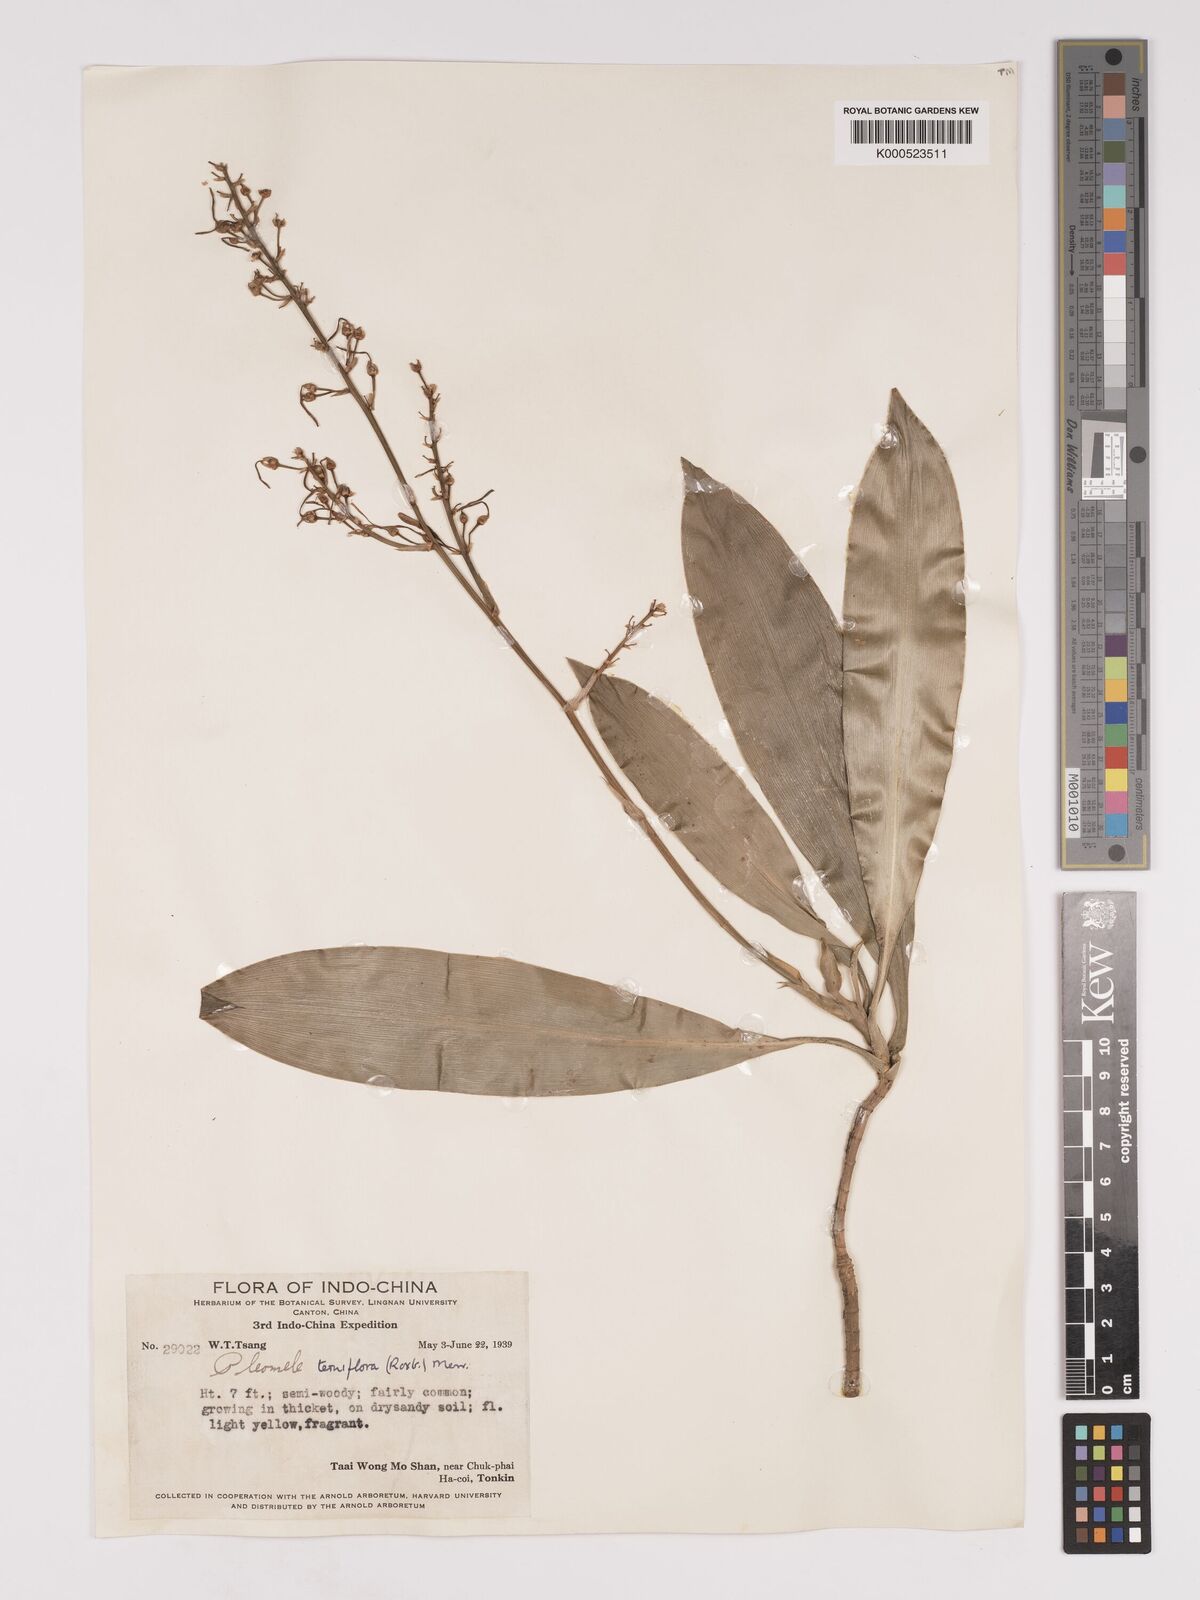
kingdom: Plantae
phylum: Tracheophyta
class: Liliopsida
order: Asparagales
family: Asparagaceae
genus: Dracaena
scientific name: Dracaena terniflora
